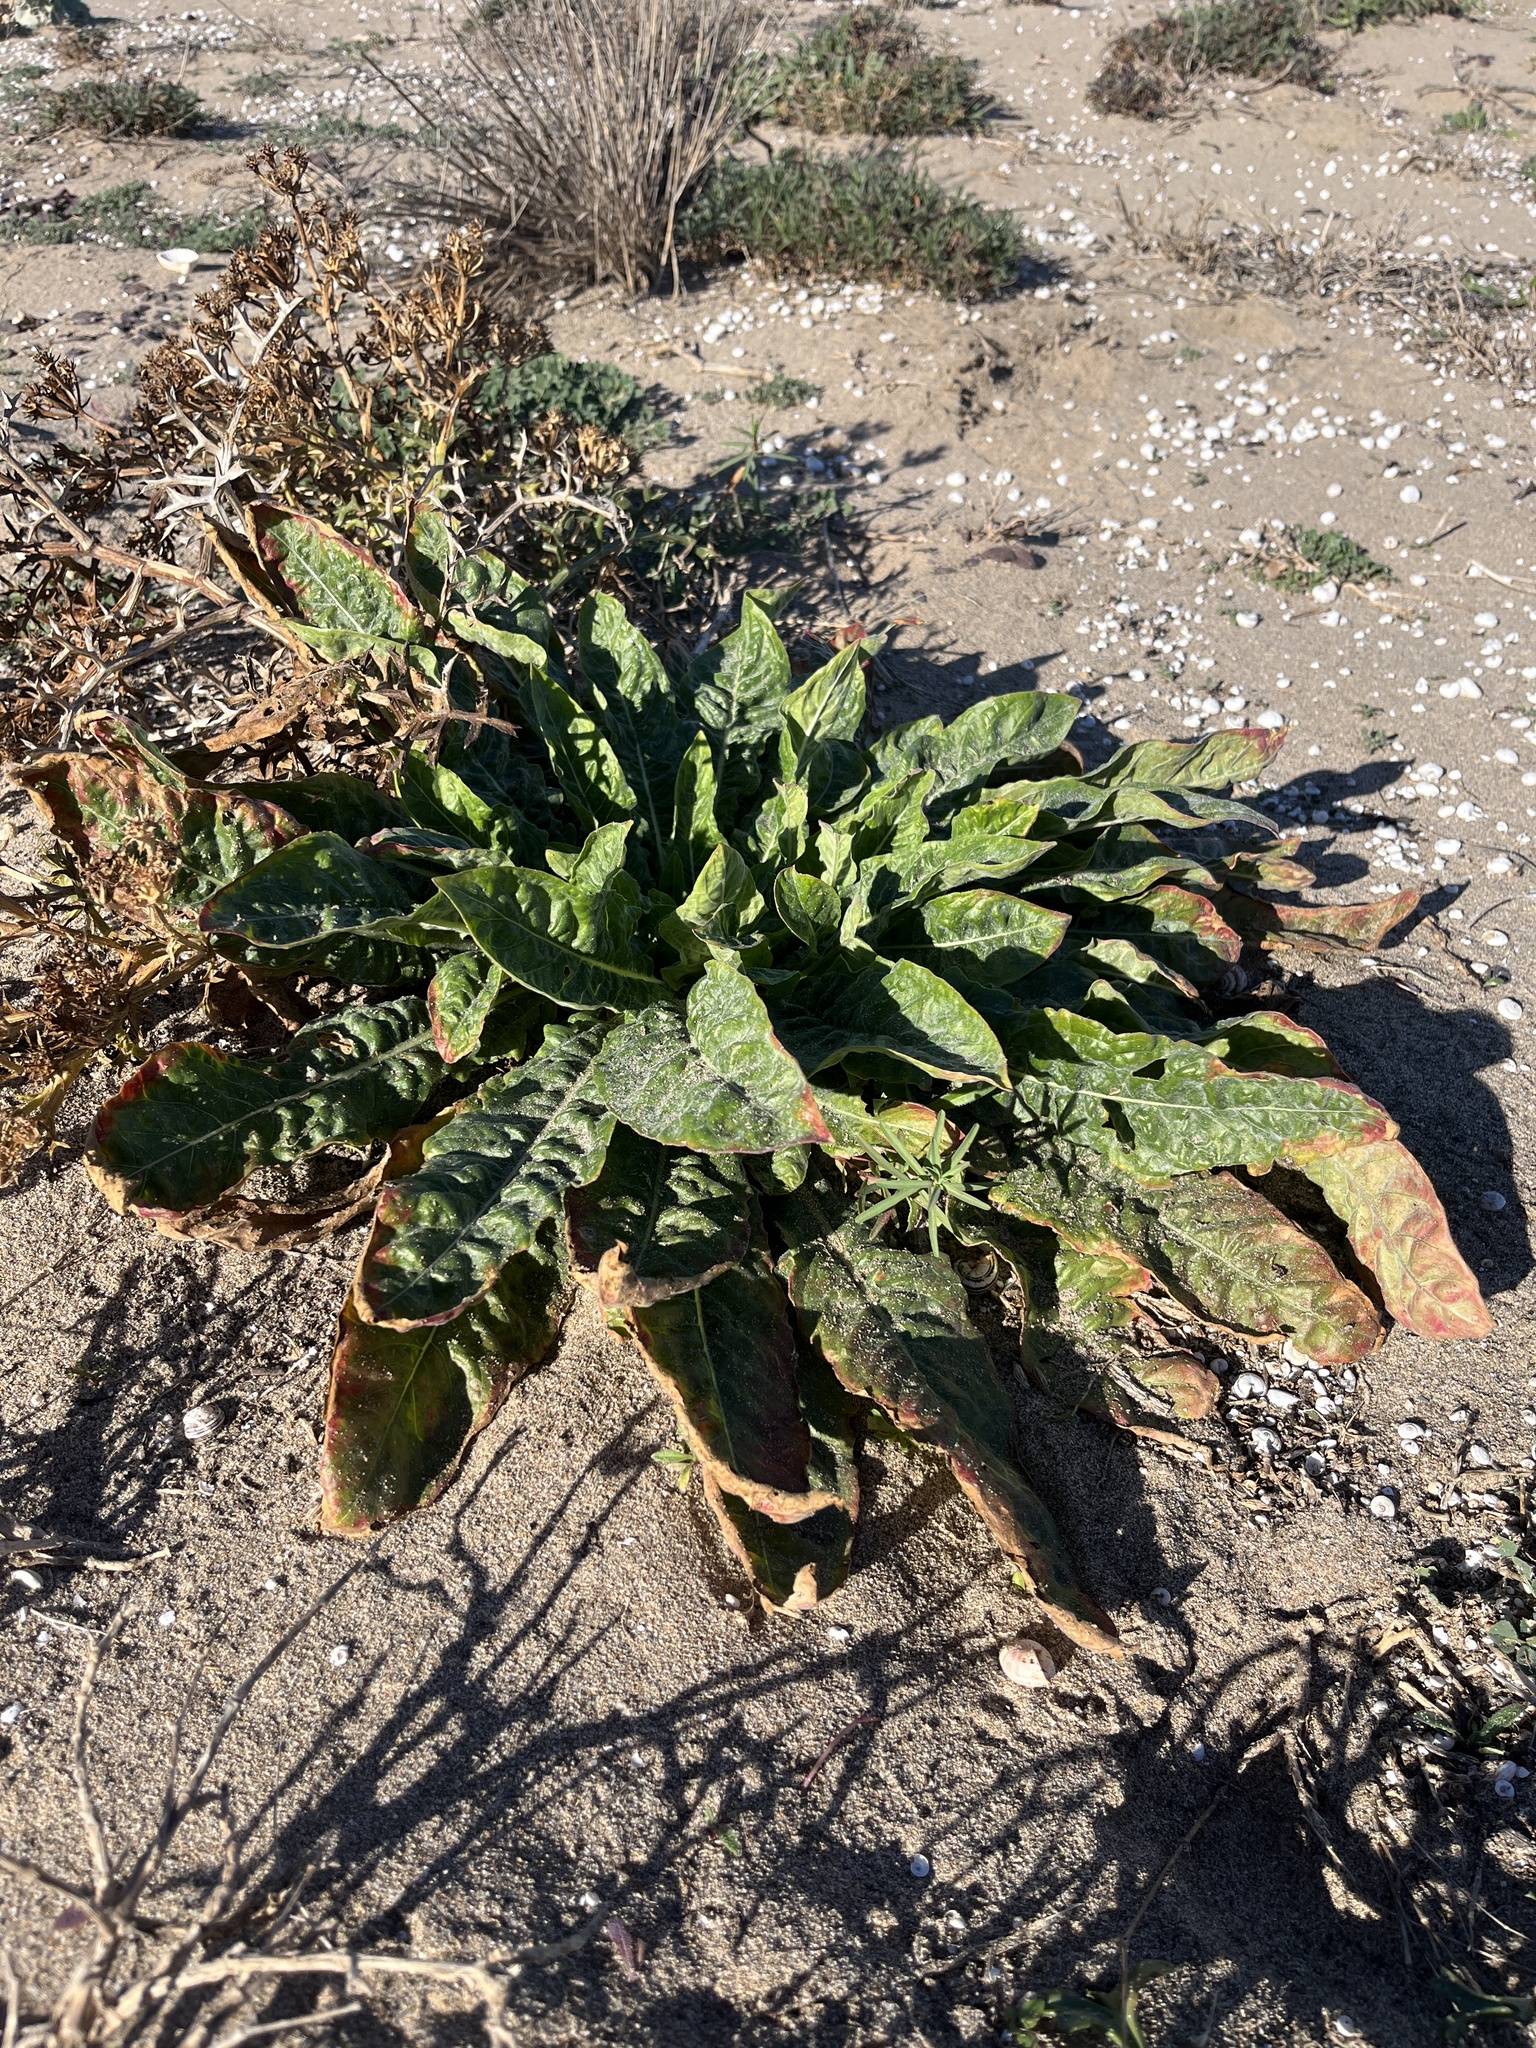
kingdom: Plantae
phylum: Tracheophyta
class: Magnoliopsida
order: Myrtales
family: Onagraceae
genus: Oenothera
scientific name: Oenothera glazioviana
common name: Large-flowered evening-primrose
